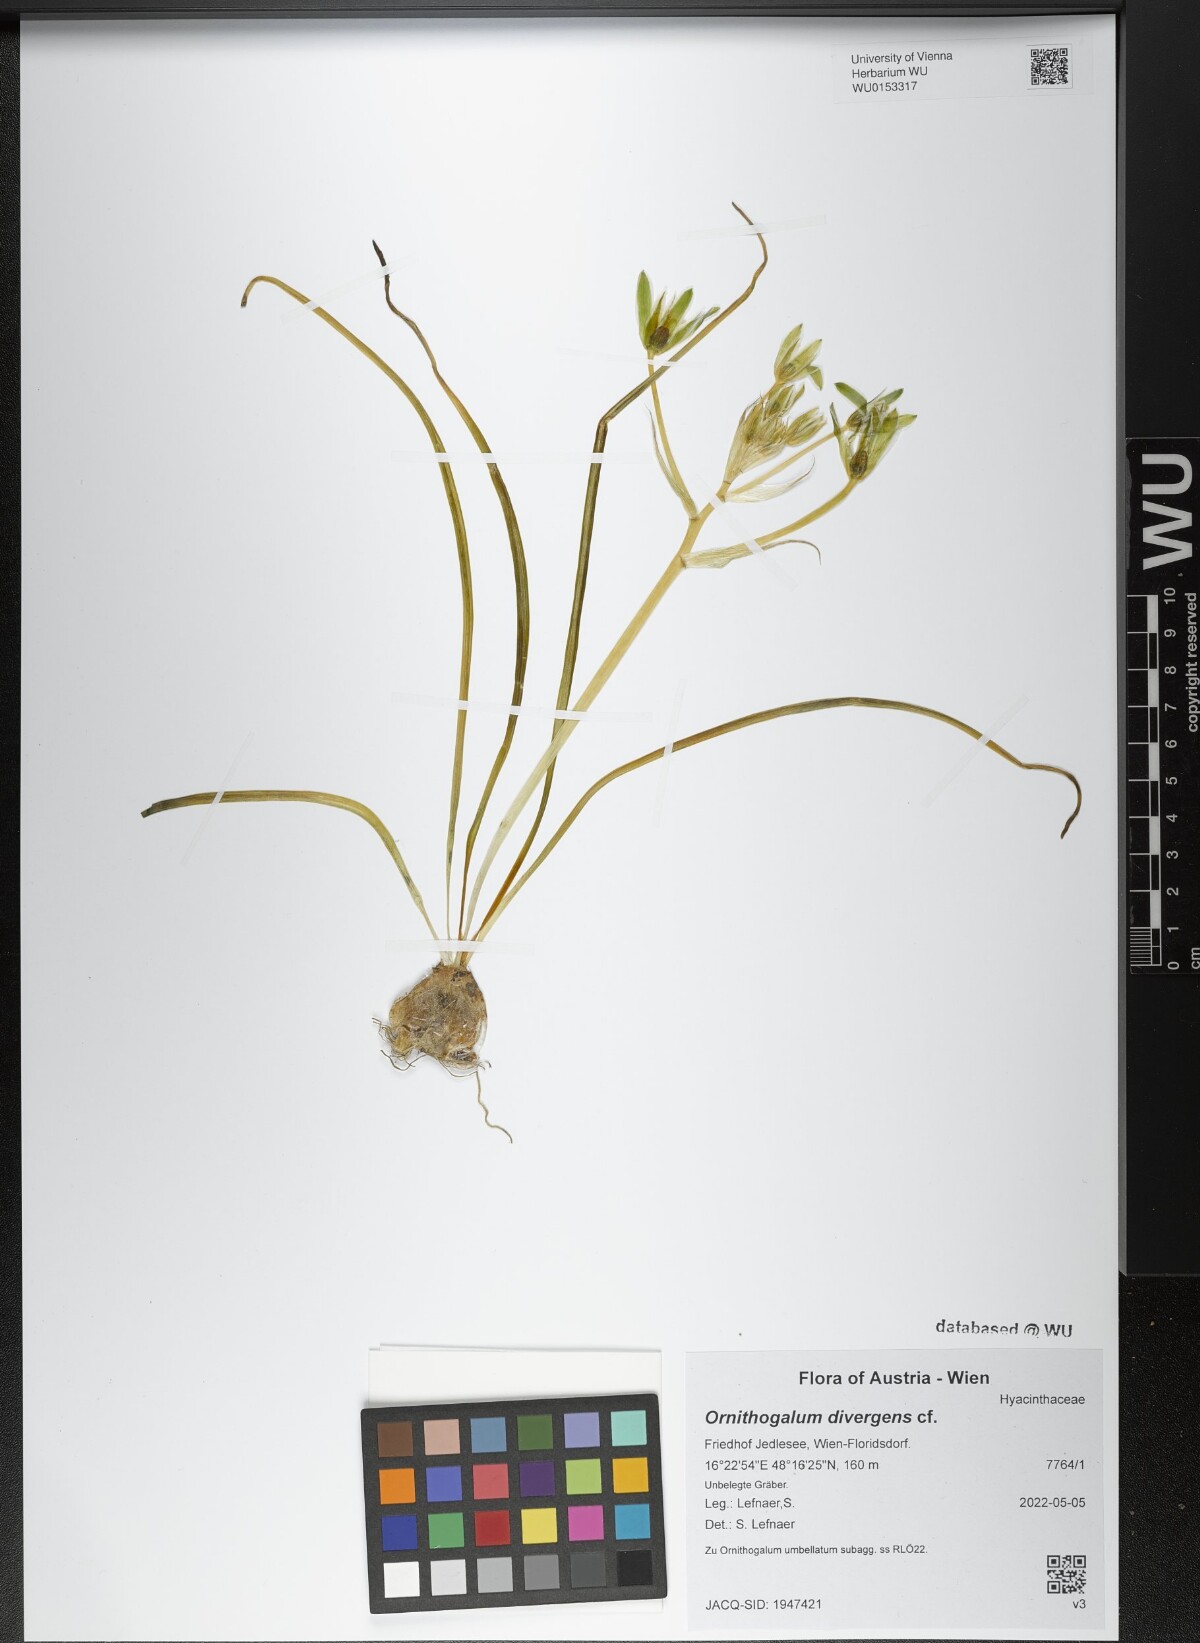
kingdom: Plantae
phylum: Tracheophyta
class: Liliopsida
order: Asparagales
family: Asparagaceae
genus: Ornithogalum
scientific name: Ornithogalum divergens
